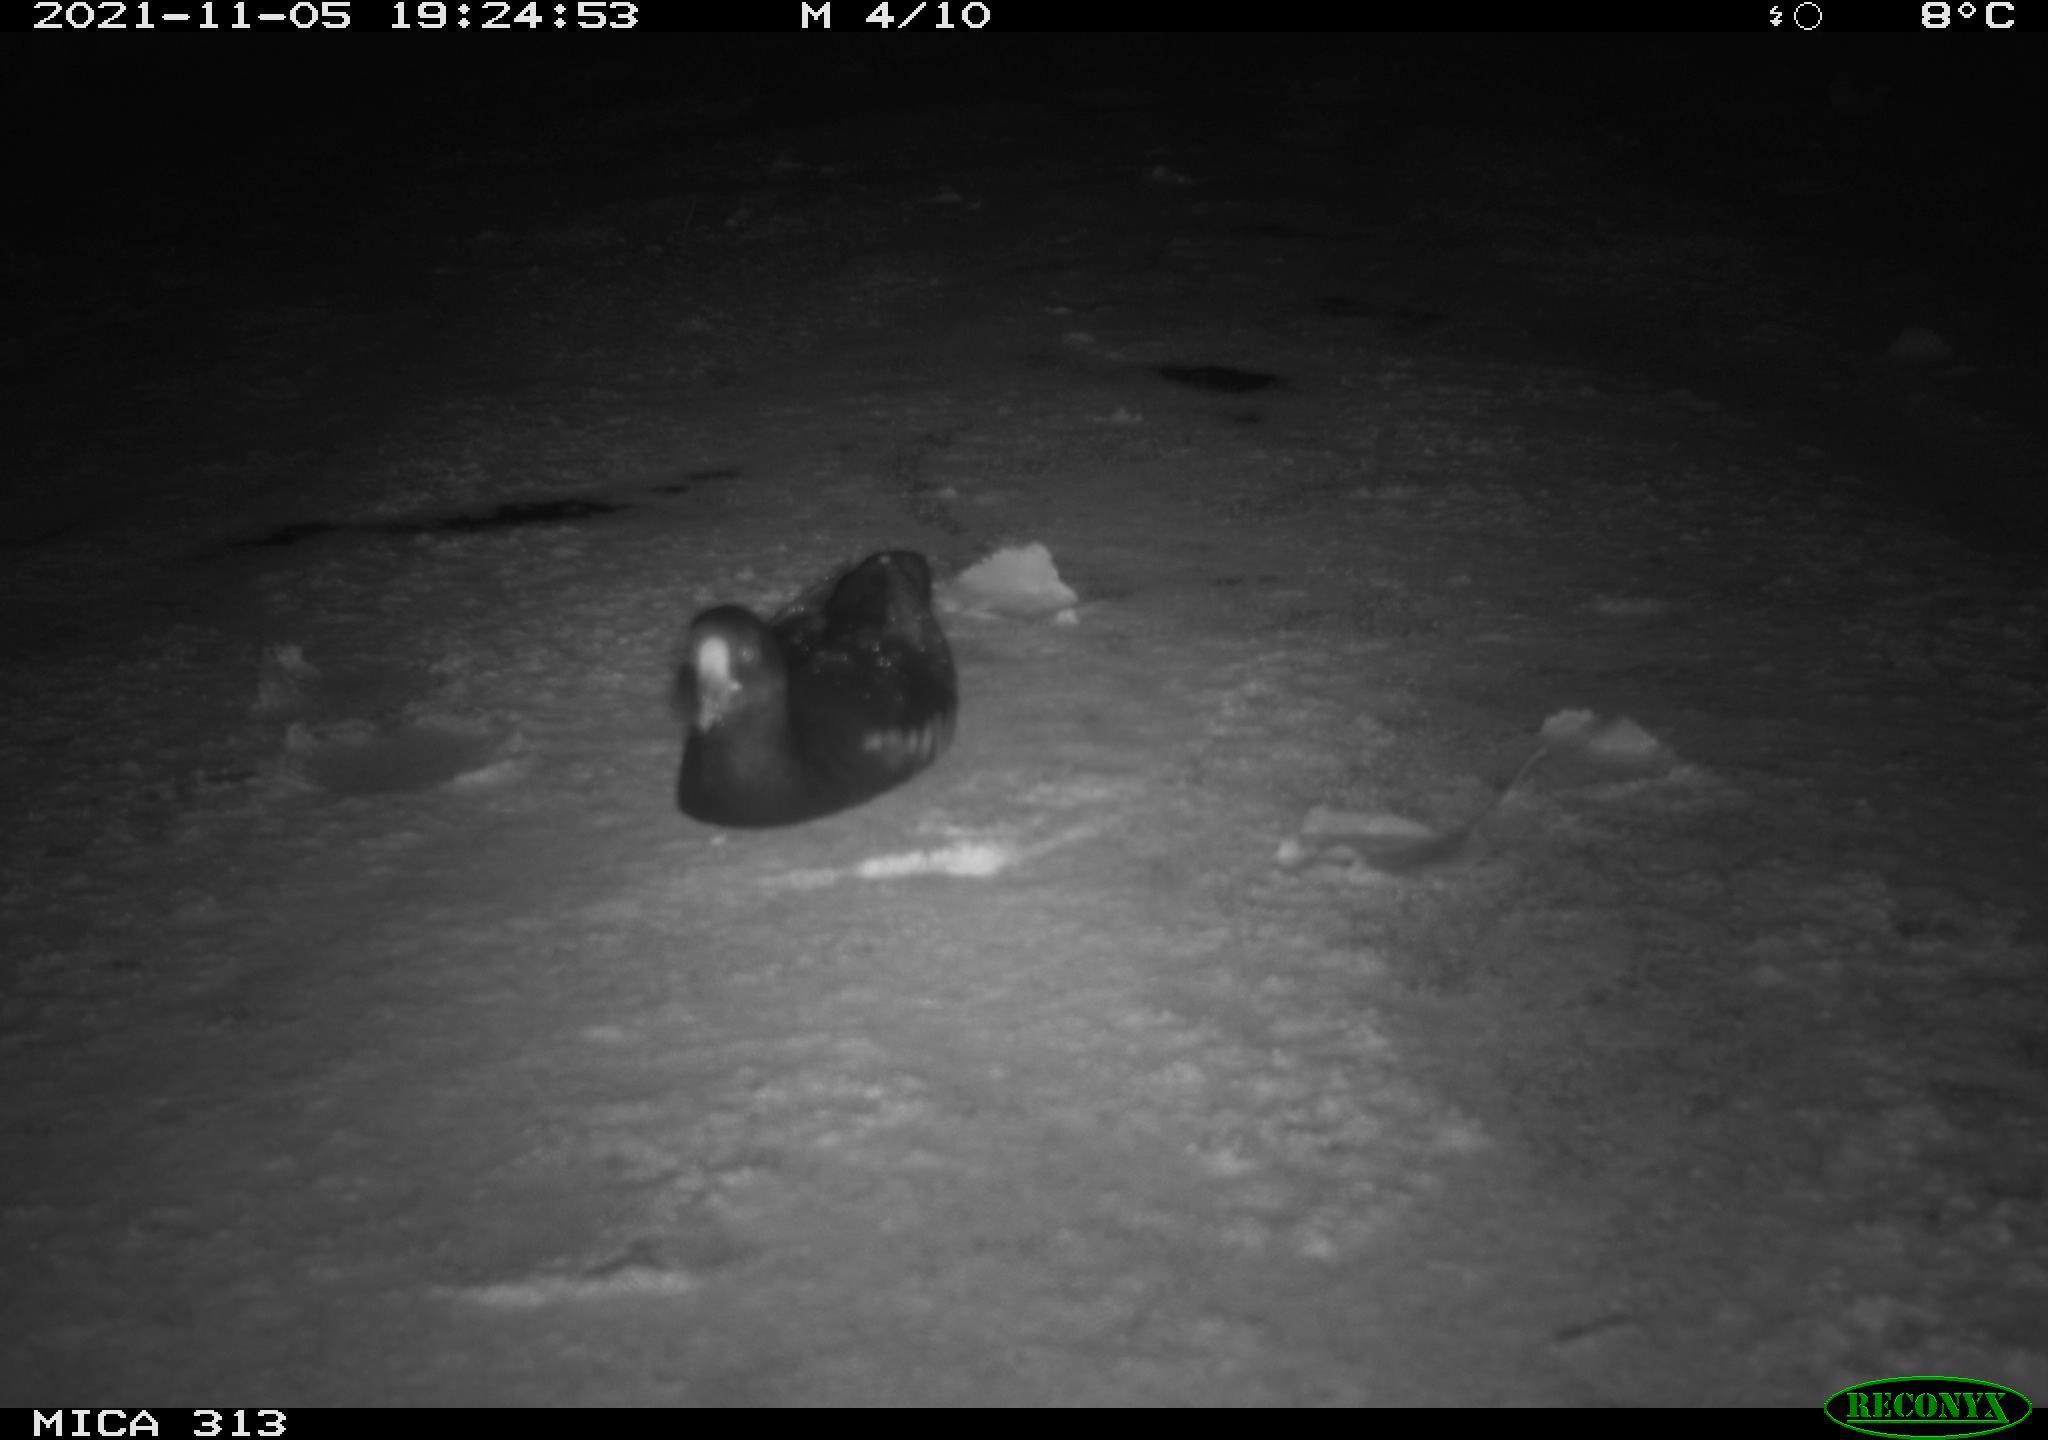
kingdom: Animalia
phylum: Chordata
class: Aves
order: Gruiformes
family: Rallidae
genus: Gallinula
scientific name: Gallinula chloropus
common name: Common moorhen
